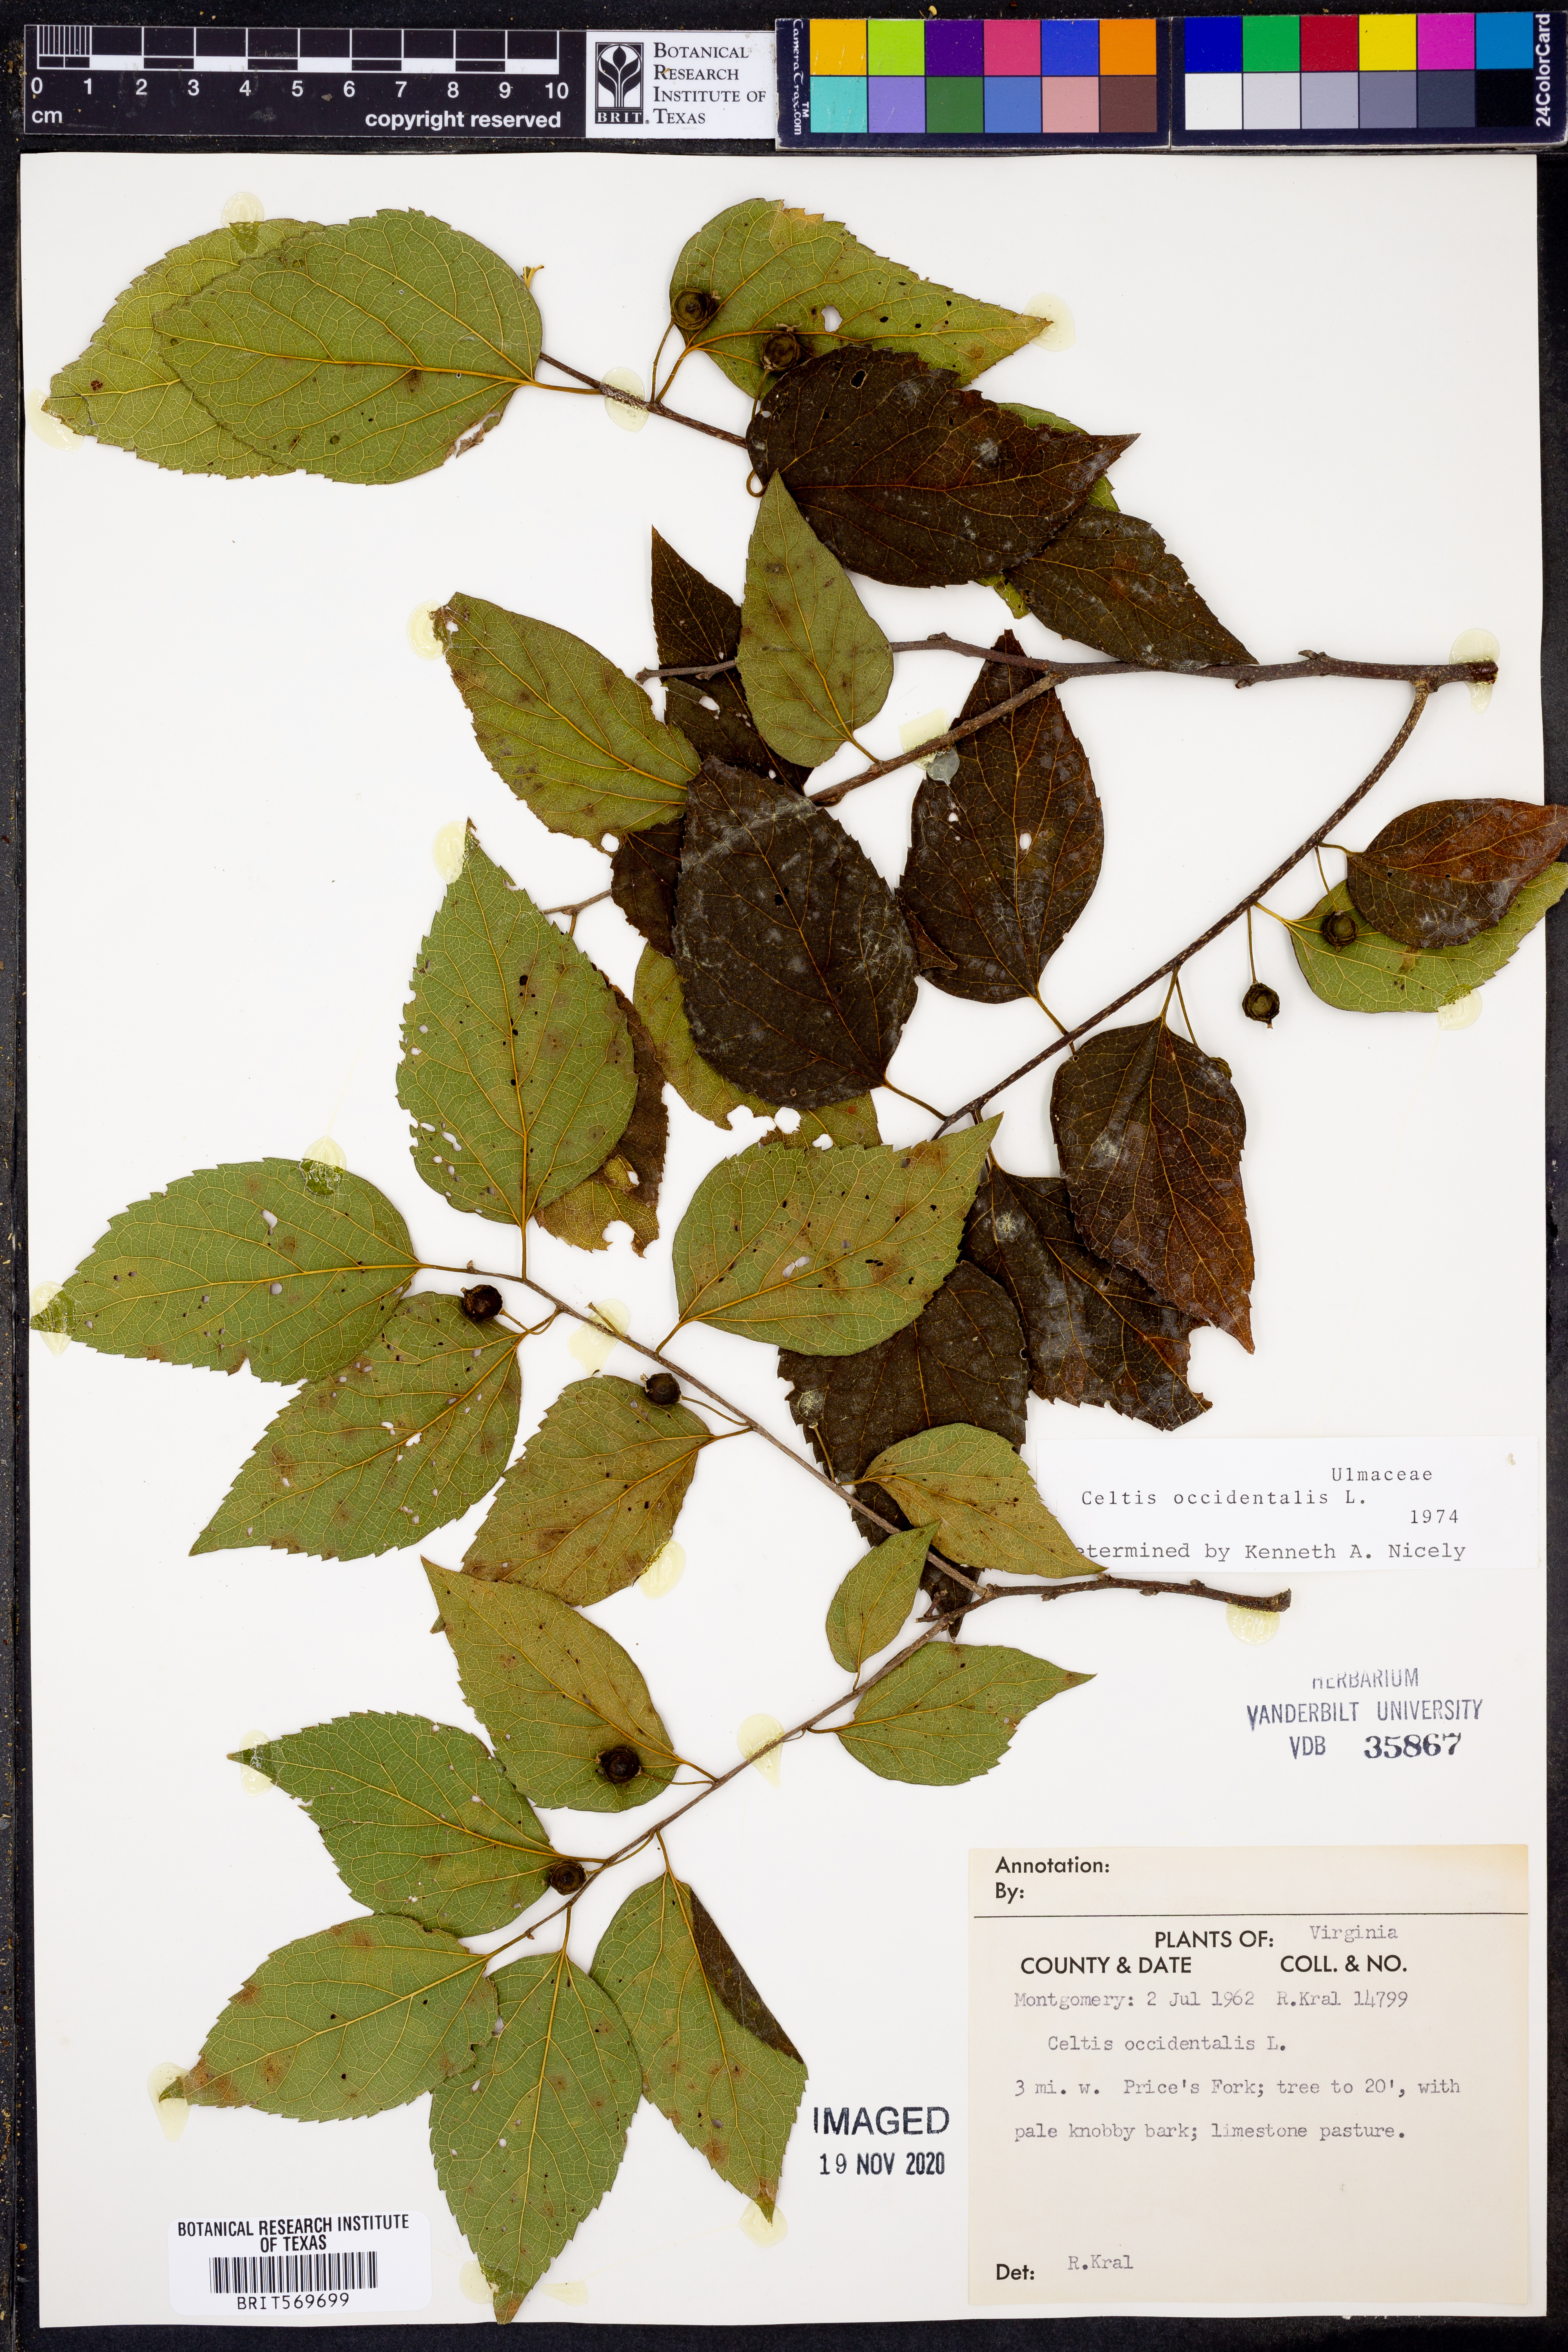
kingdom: Plantae
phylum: Tracheophyta
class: Magnoliopsida
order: Rosales
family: Cannabaceae
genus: Celtis
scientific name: Celtis occidentalis
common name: Common hackberry
